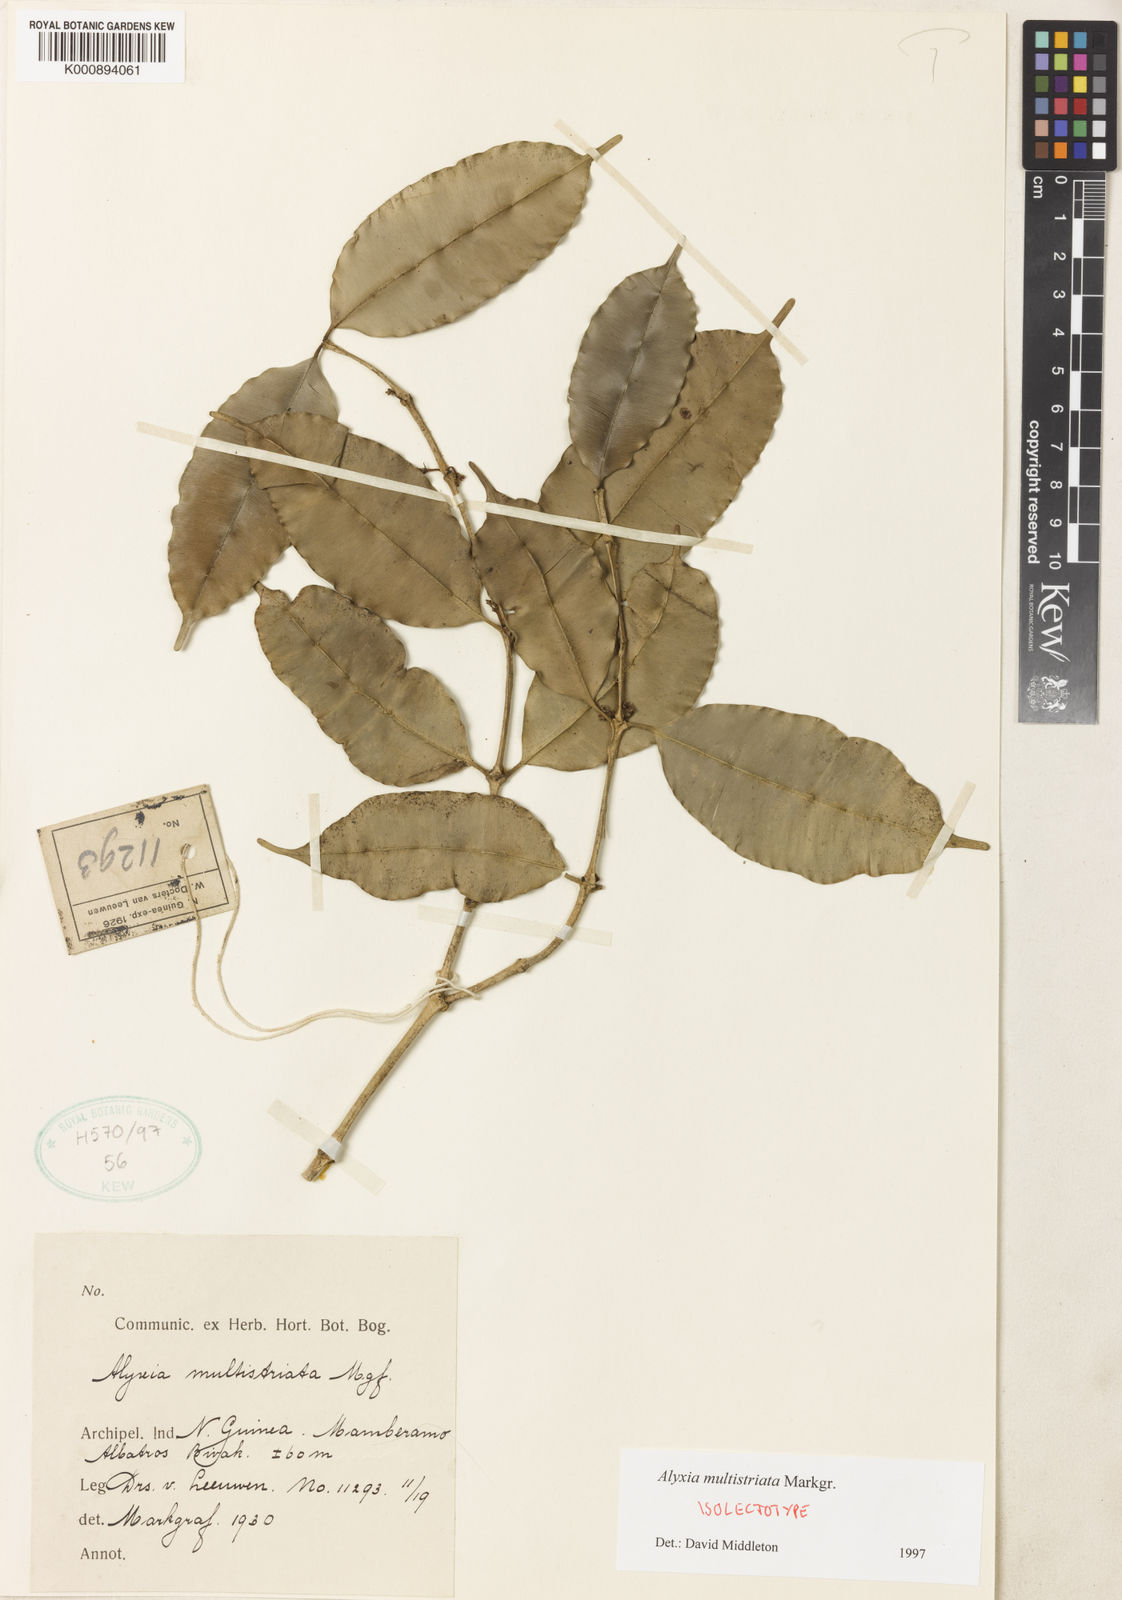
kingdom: Plantae
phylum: Tracheophyta
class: Magnoliopsida
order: Gentianales
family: Apocynaceae
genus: Alyxia
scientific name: Alyxia multistriata
